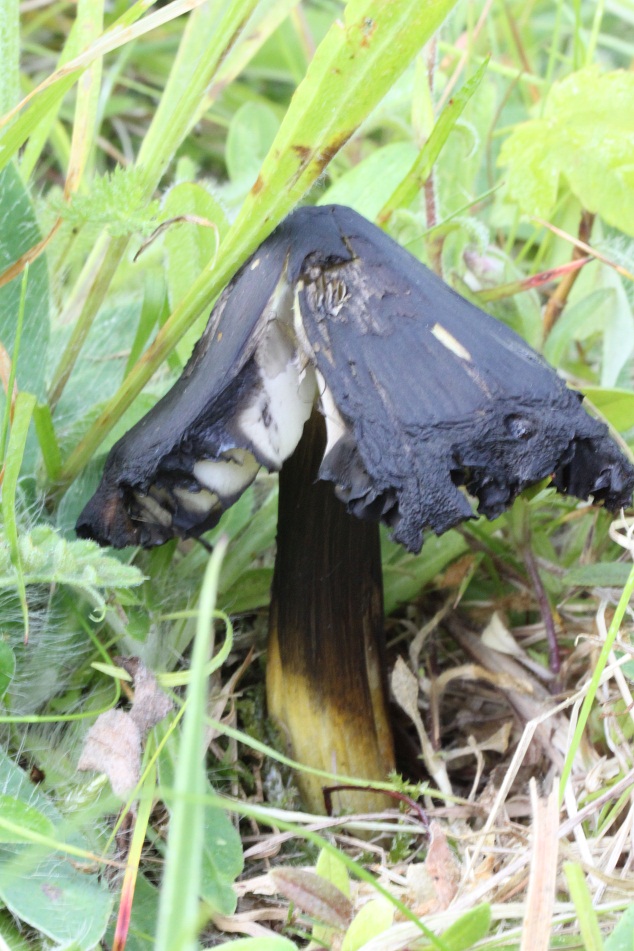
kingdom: Fungi
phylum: Basidiomycota
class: Agaricomycetes
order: Agaricales
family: Hygrophoraceae
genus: Hygrocybe
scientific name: Hygrocybe conica
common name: kegle-vokshat
